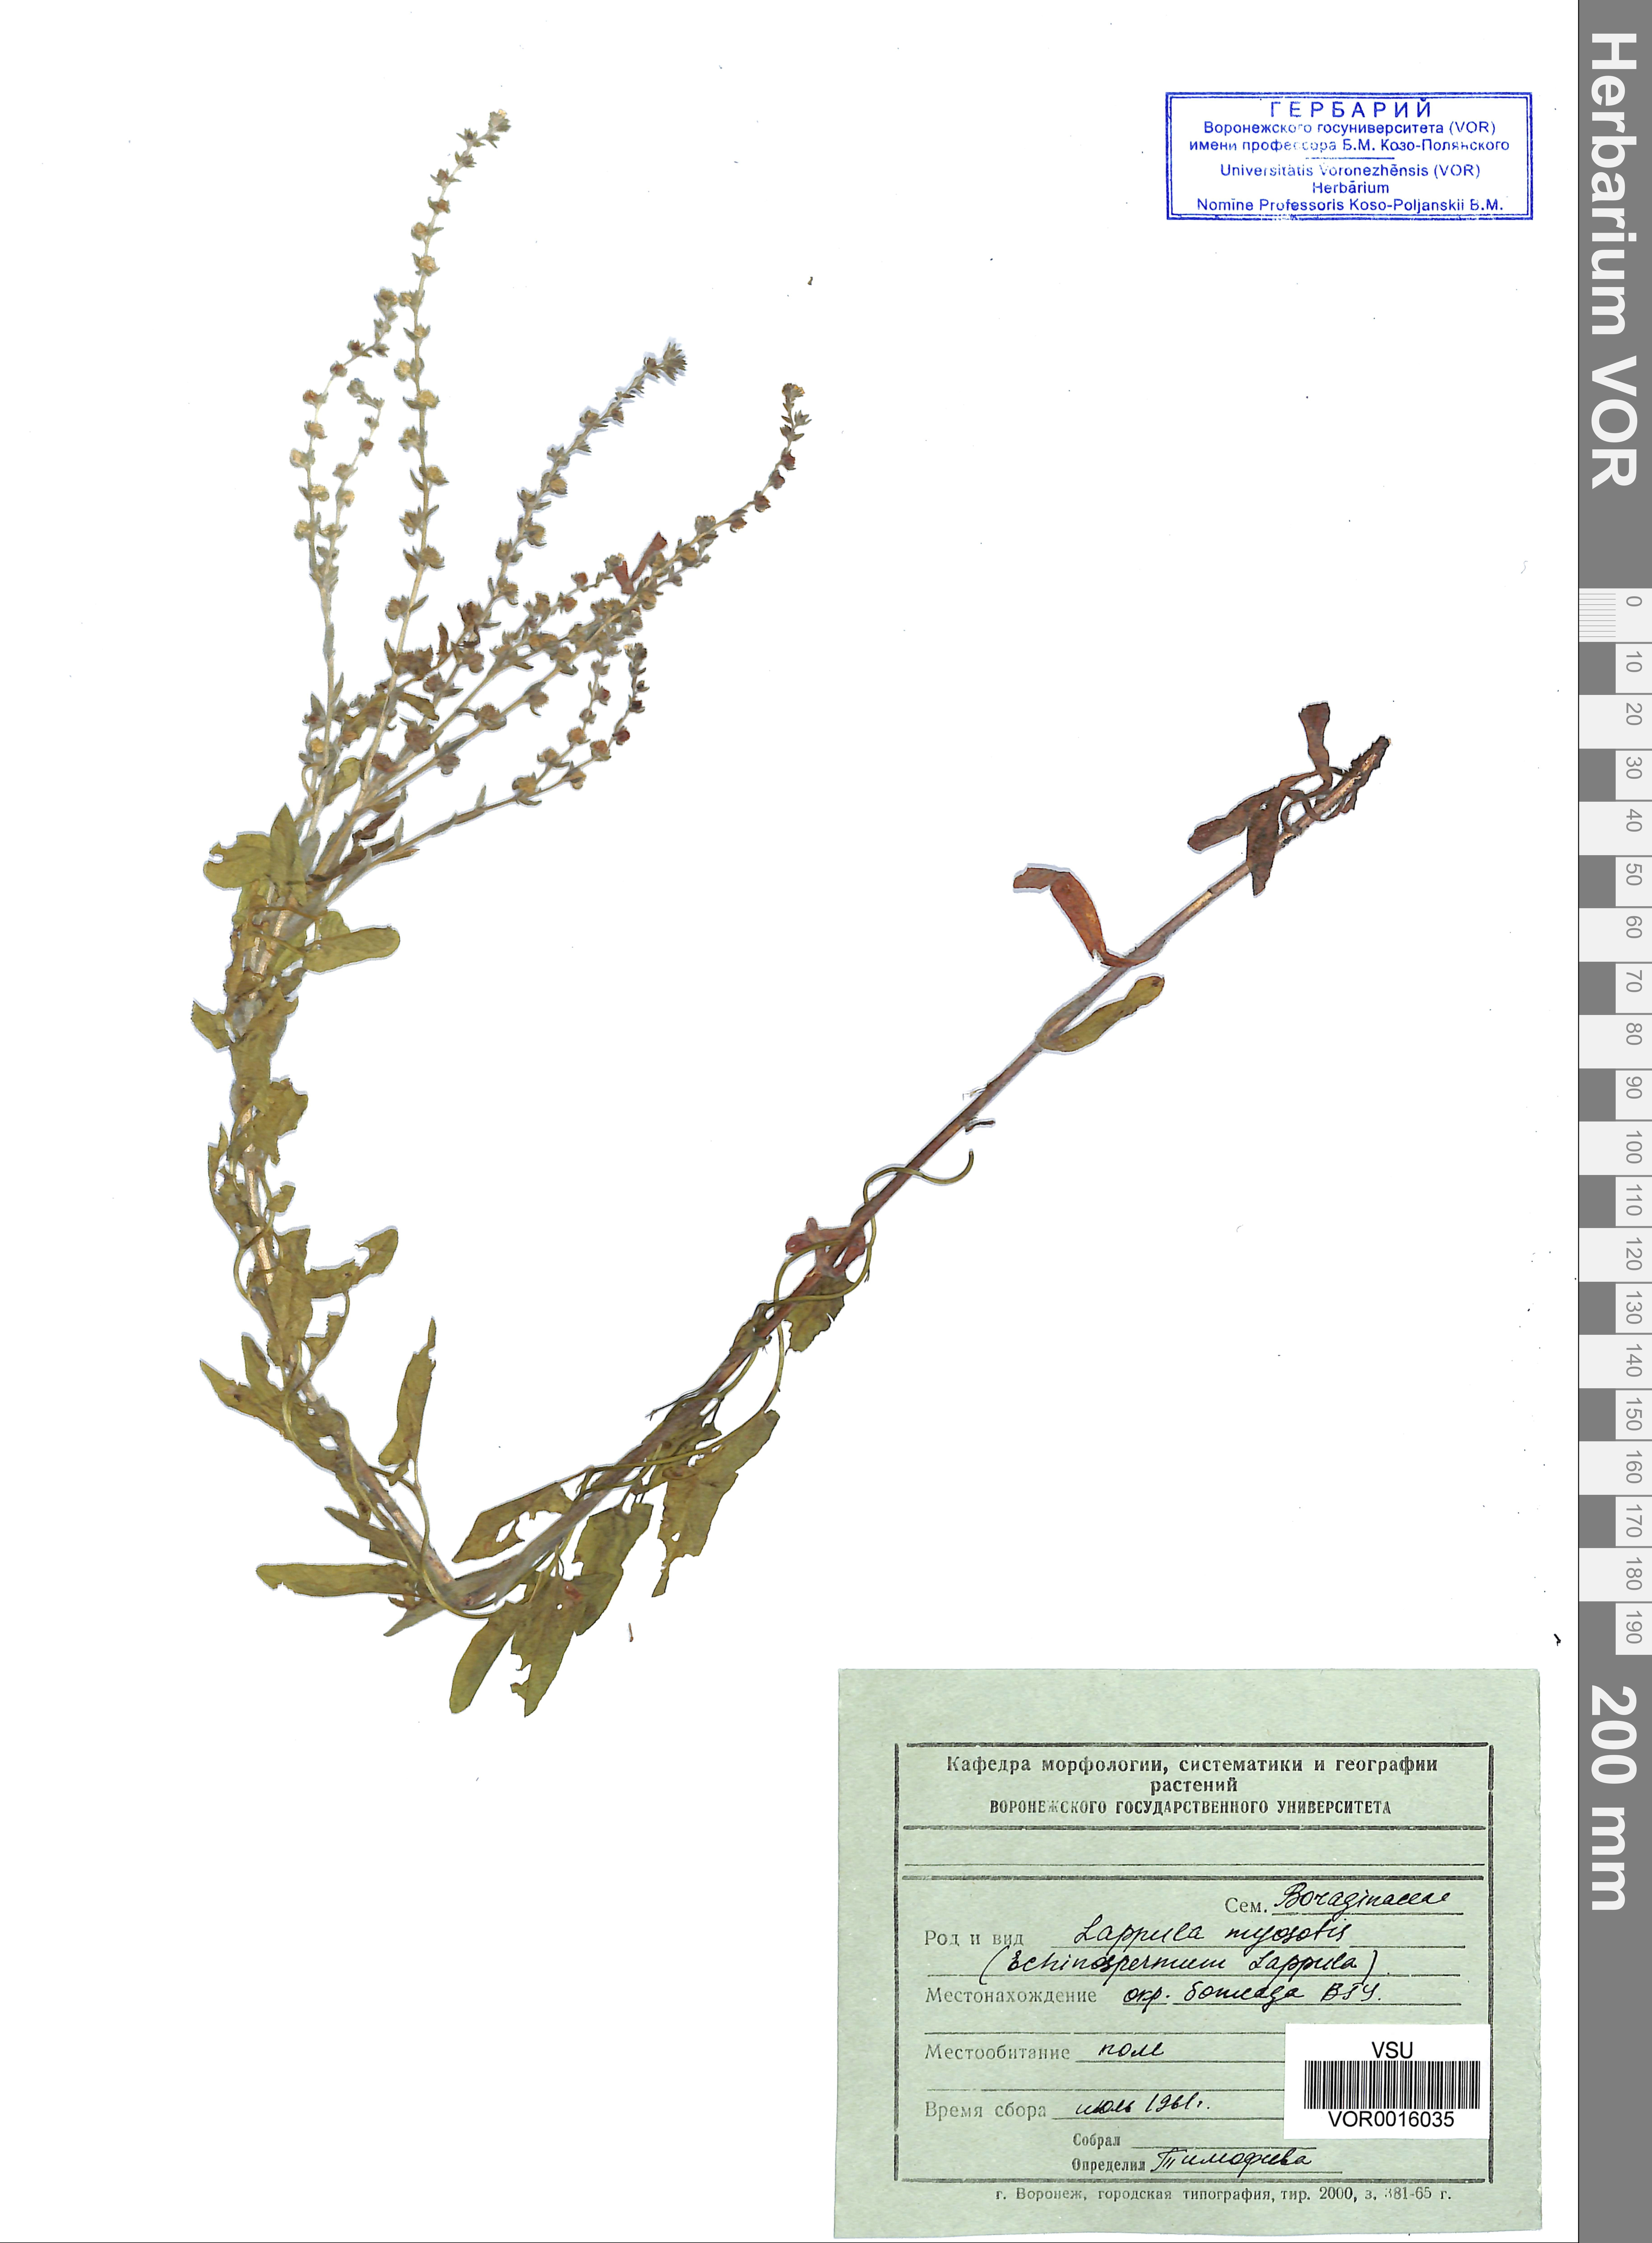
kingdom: Plantae
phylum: Tracheophyta
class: Magnoliopsida
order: Boraginales
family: Boraginaceae
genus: Lappula
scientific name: Lappula squarrosa
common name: European stickseed
